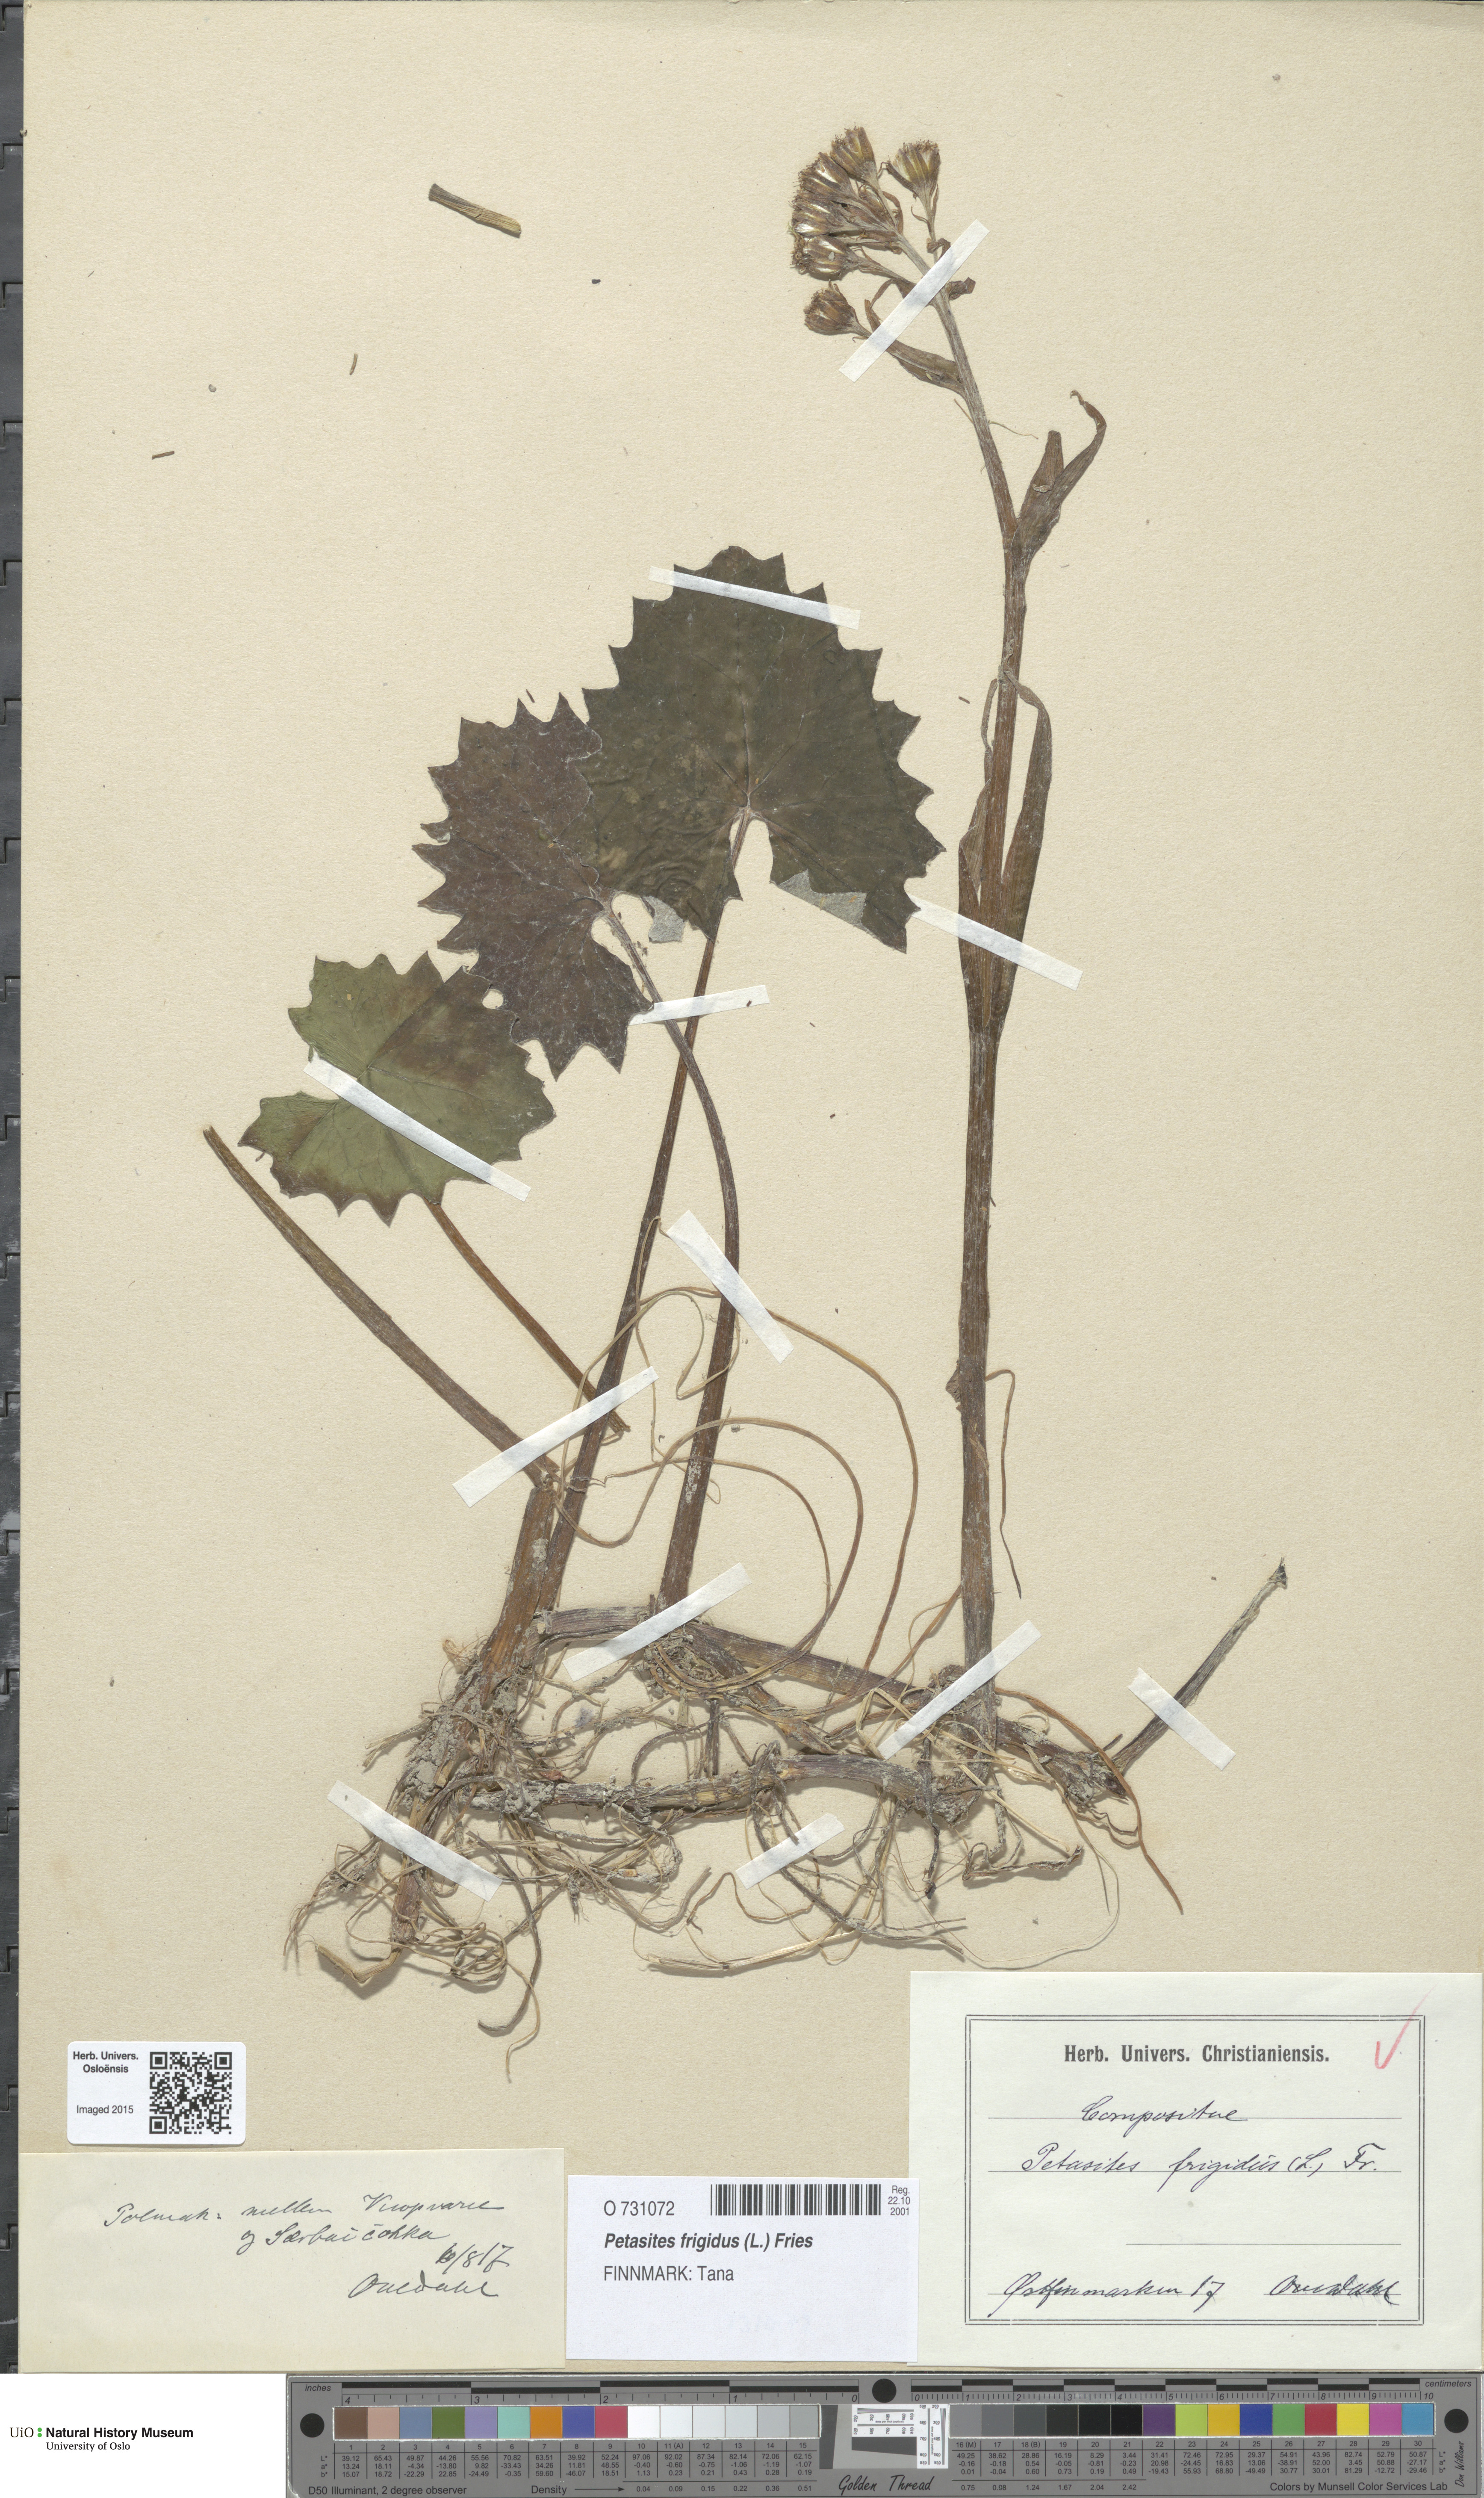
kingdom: Plantae
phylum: Tracheophyta
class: Magnoliopsida
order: Asterales
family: Asteraceae
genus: Petasites
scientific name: Petasites frigidus
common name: Arctic butterbur
